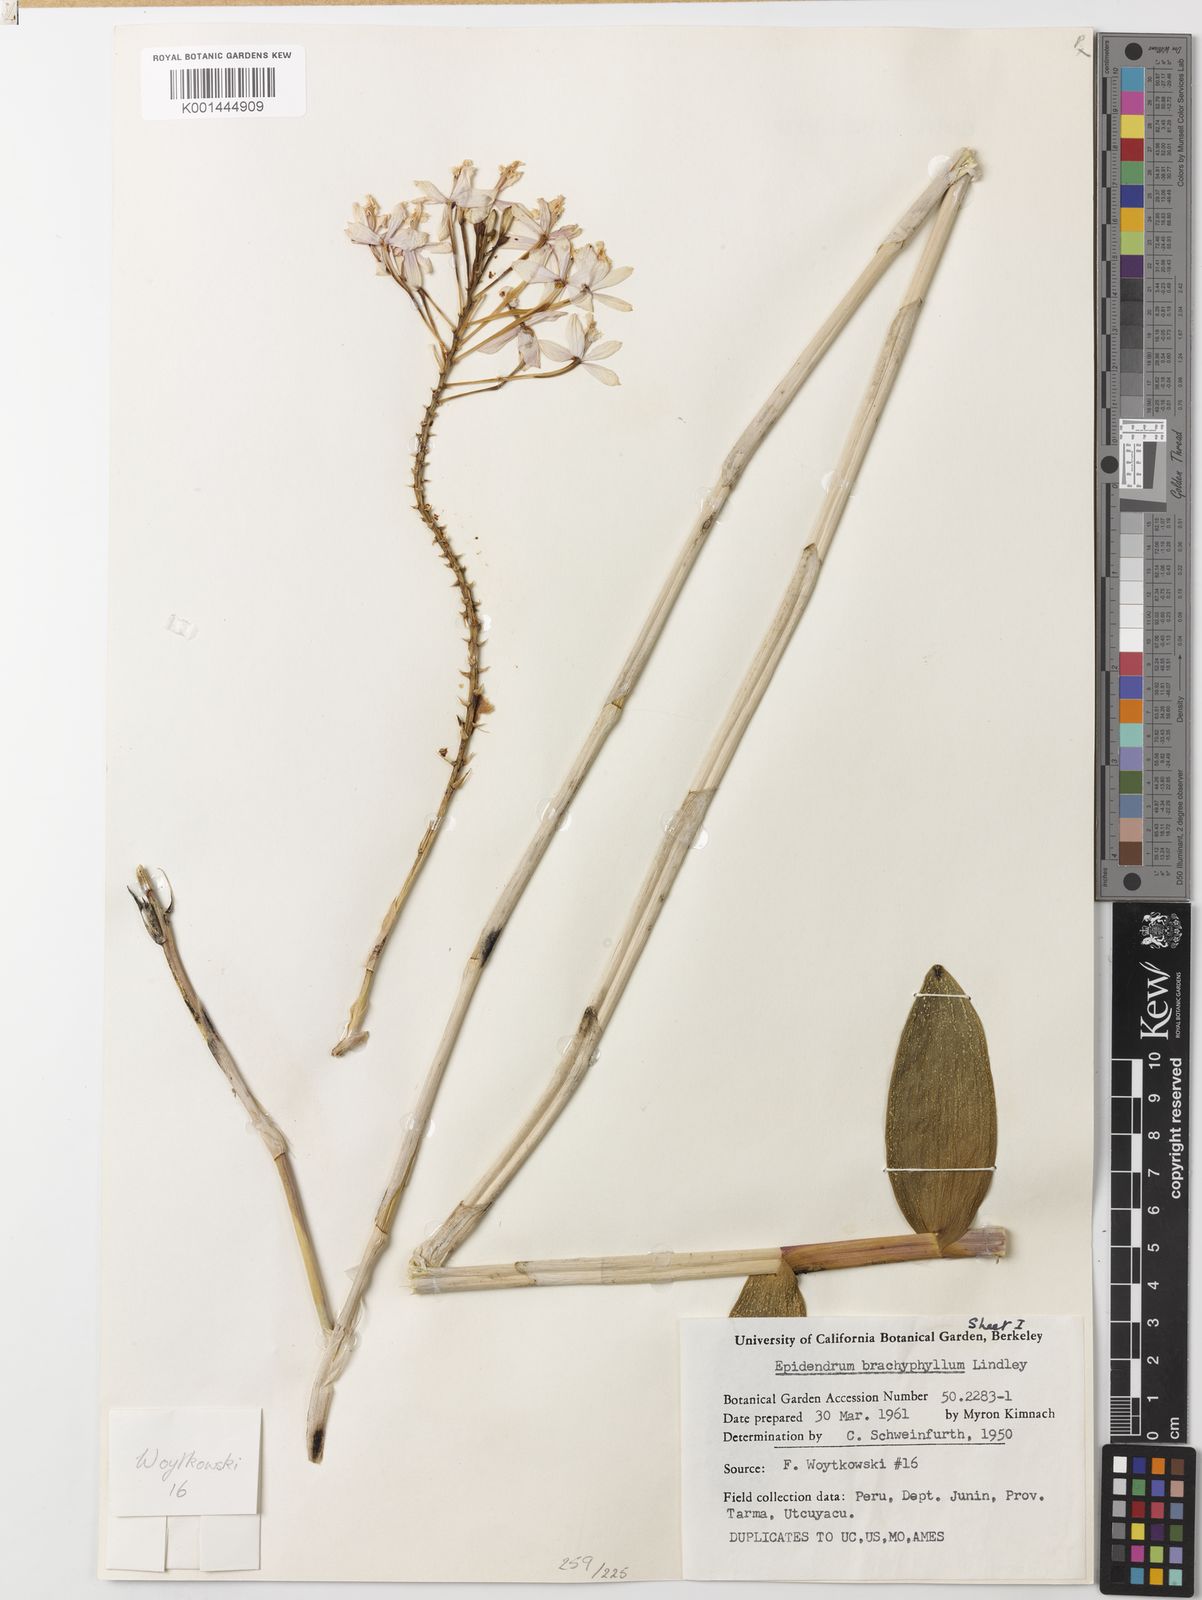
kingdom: Plantae
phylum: Tracheophyta
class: Liliopsida
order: Asparagales
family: Orchidaceae
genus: Epidendrum
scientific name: Epidendrum secundum
